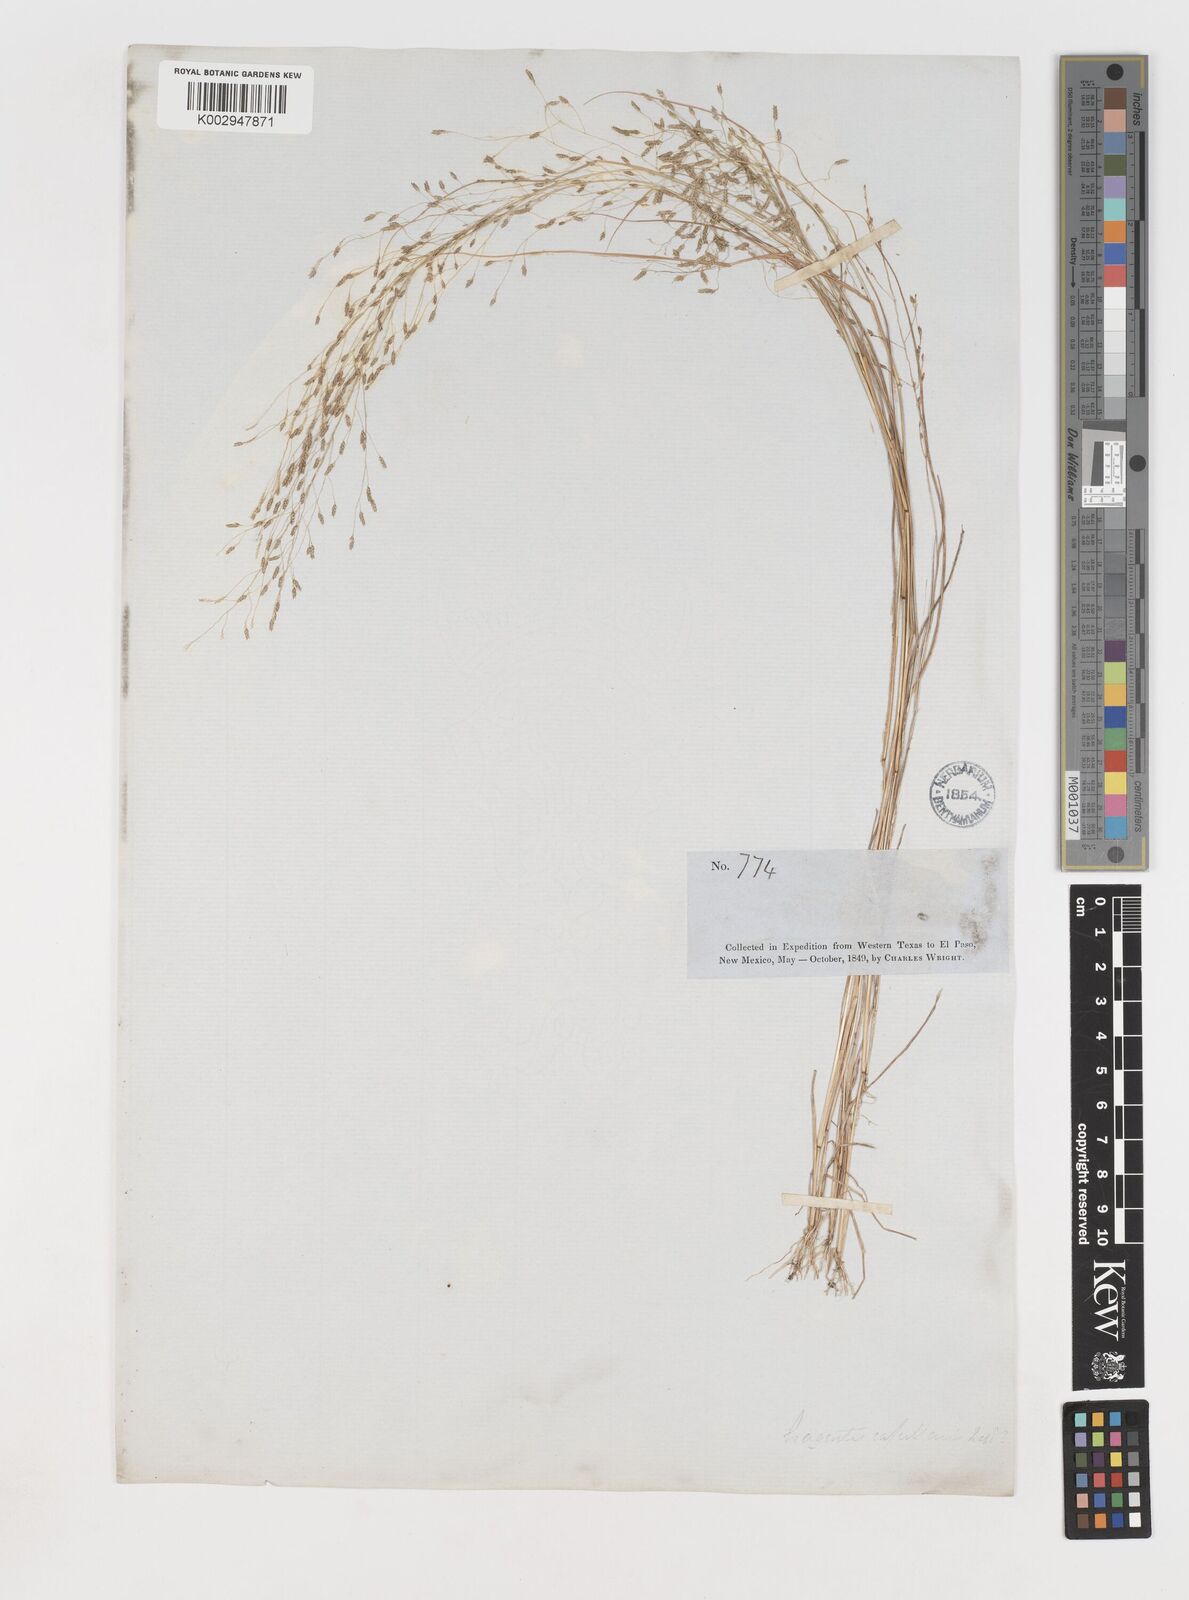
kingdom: Plantae
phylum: Tracheophyta
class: Liliopsida
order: Poales
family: Poaceae
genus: Eragrostis
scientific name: Eragrostis
